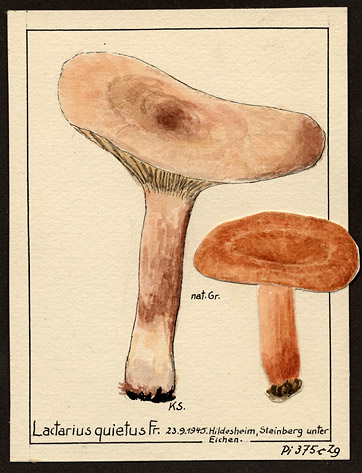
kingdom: Fungi
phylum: Basidiomycota
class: Agaricomycetes
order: Russulales
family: Russulaceae
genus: Lactarius
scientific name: Lactarius quietus
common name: Oak milk-cap
